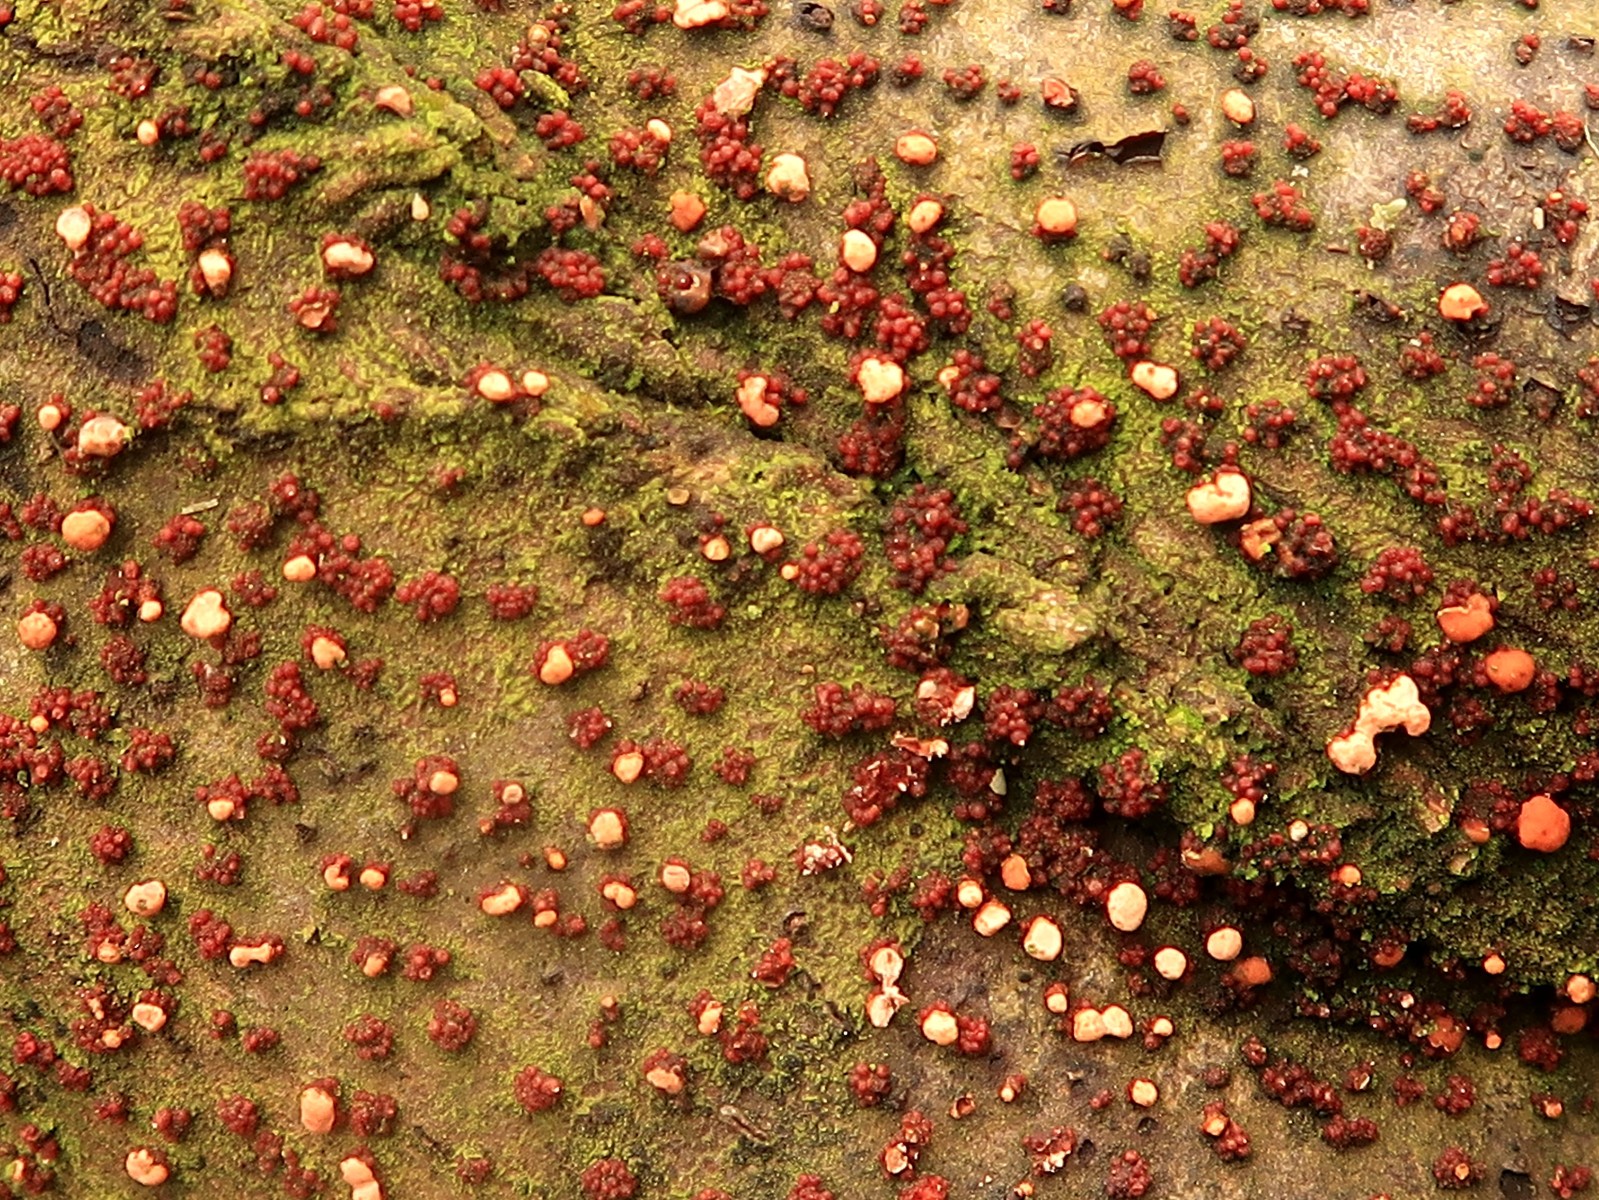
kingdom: Fungi
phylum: Ascomycota
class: Sordariomycetes
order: Hypocreales
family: Nectriaceae
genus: Nectria
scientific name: Nectria cinnabarina
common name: almindelig cinnobersvamp
